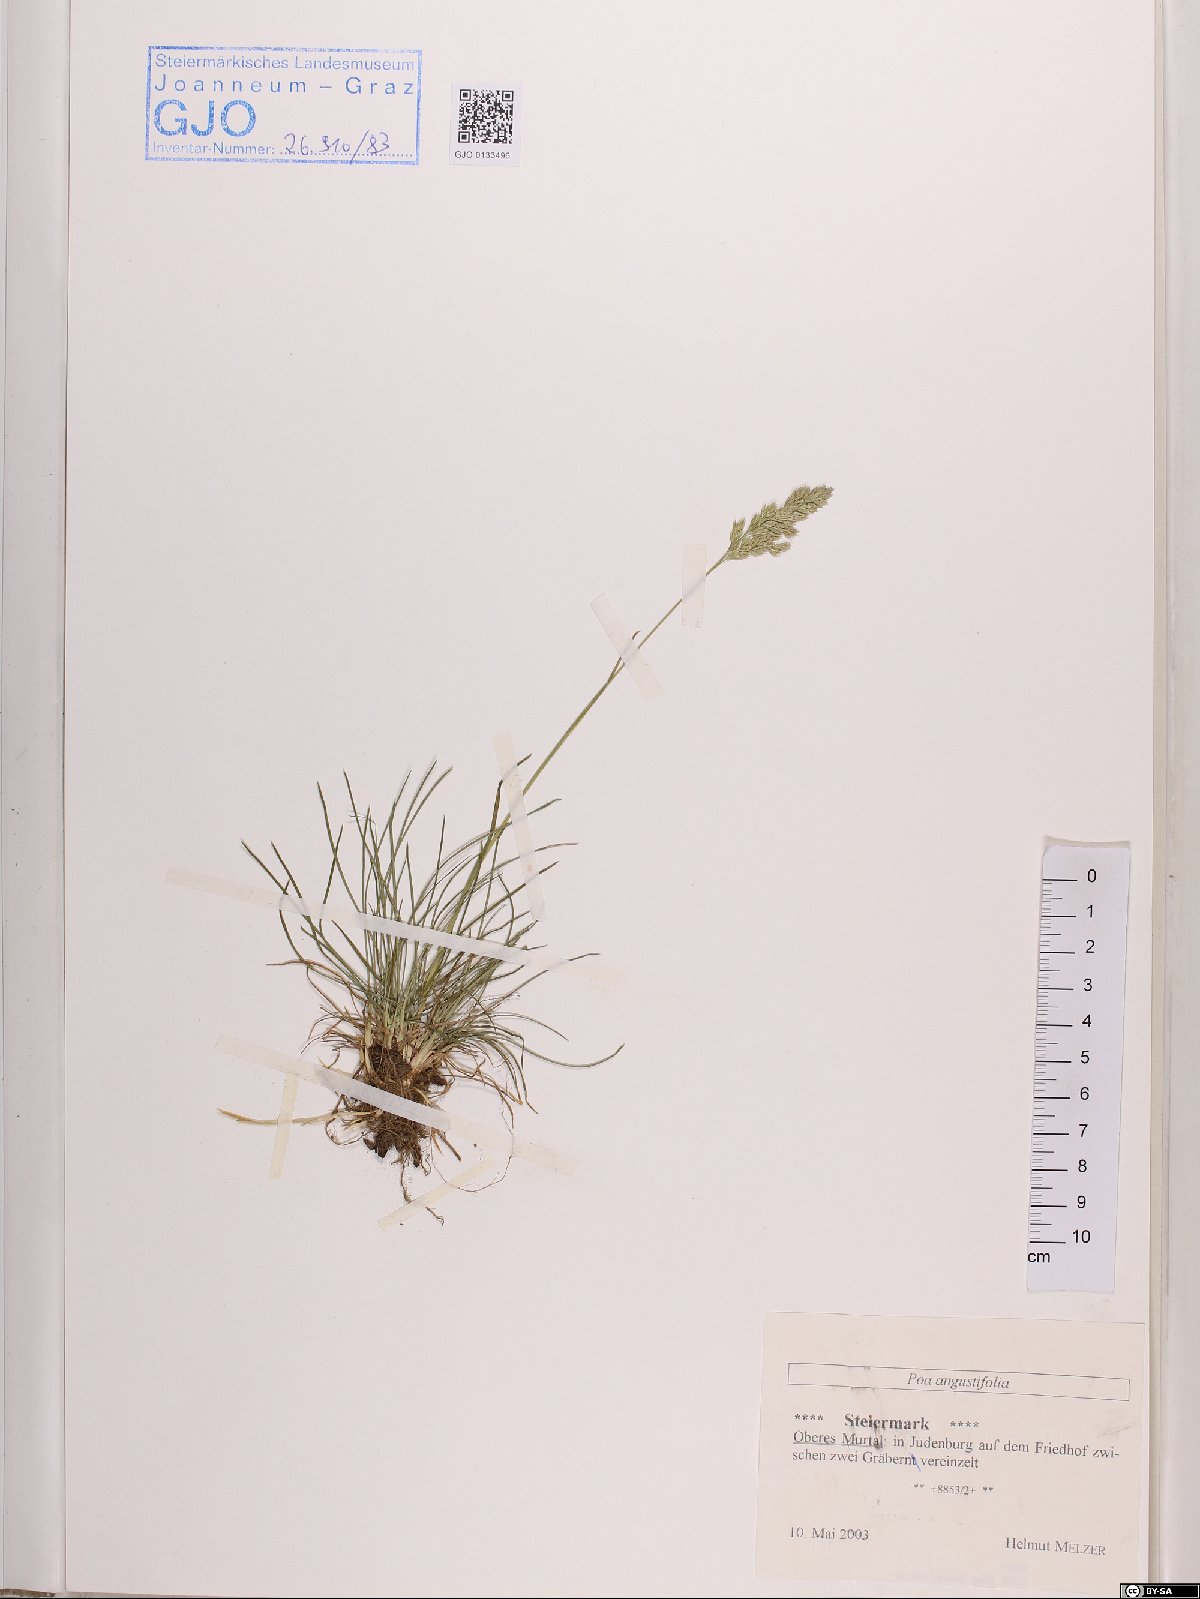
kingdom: Plantae
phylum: Tracheophyta
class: Liliopsida
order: Poales
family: Poaceae
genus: Poa
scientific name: Poa angustifolia
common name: Narrow-leaved meadow-grass
